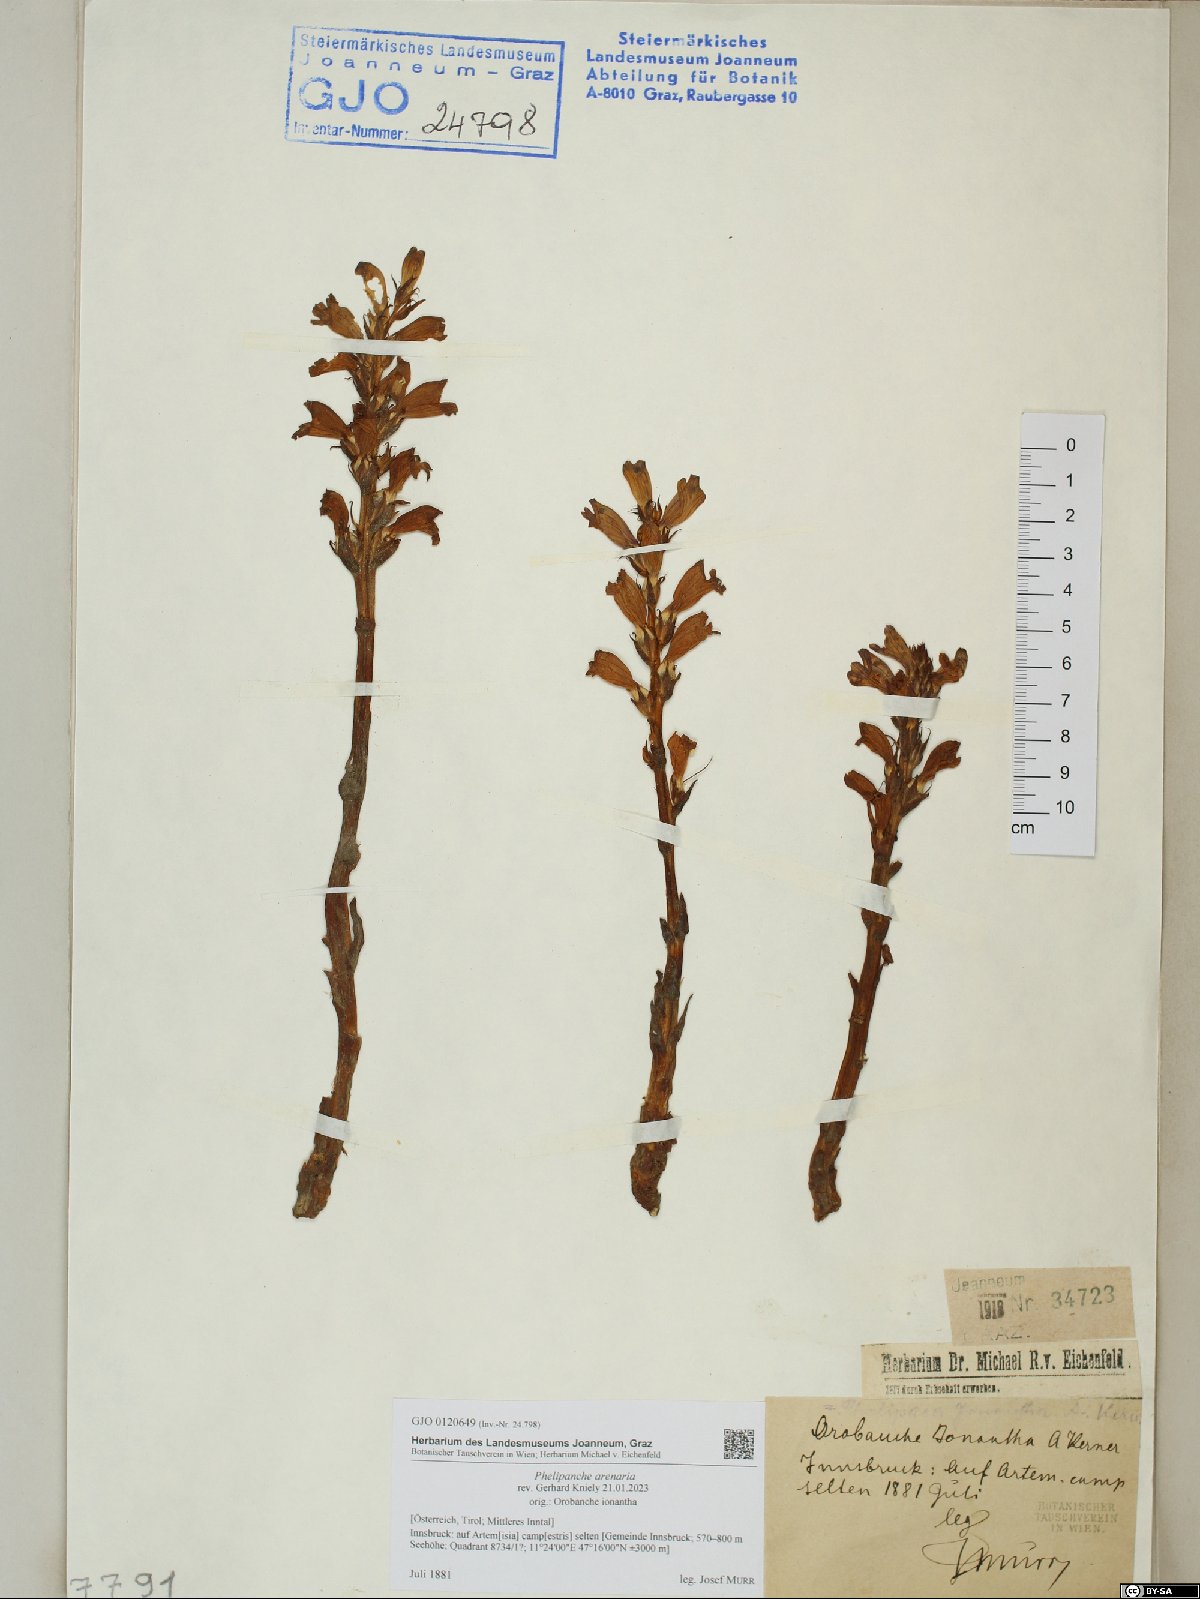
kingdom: Plantae
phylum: Tracheophyta
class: Magnoliopsida
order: Lamiales
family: Orobanchaceae
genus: Phelipanche
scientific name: Phelipanche arenaria
